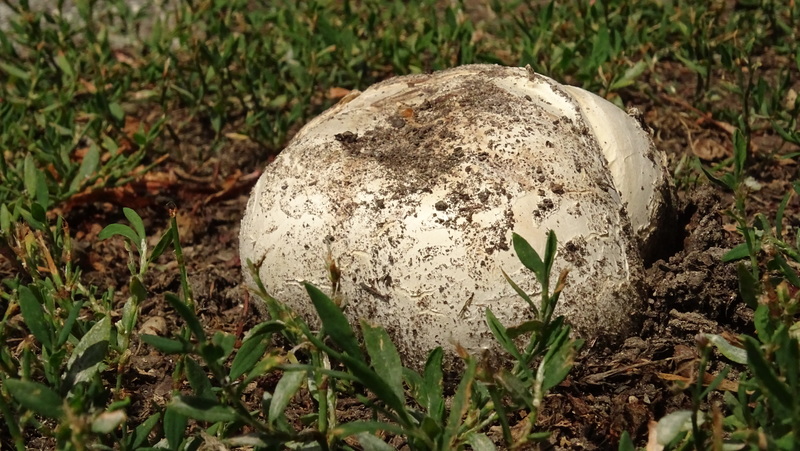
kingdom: Fungi
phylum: Basidiomycota
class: Agaricomycetes
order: Agaricales
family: Agaricaceae
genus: Mycenastrum
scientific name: Mycenastrum corium
